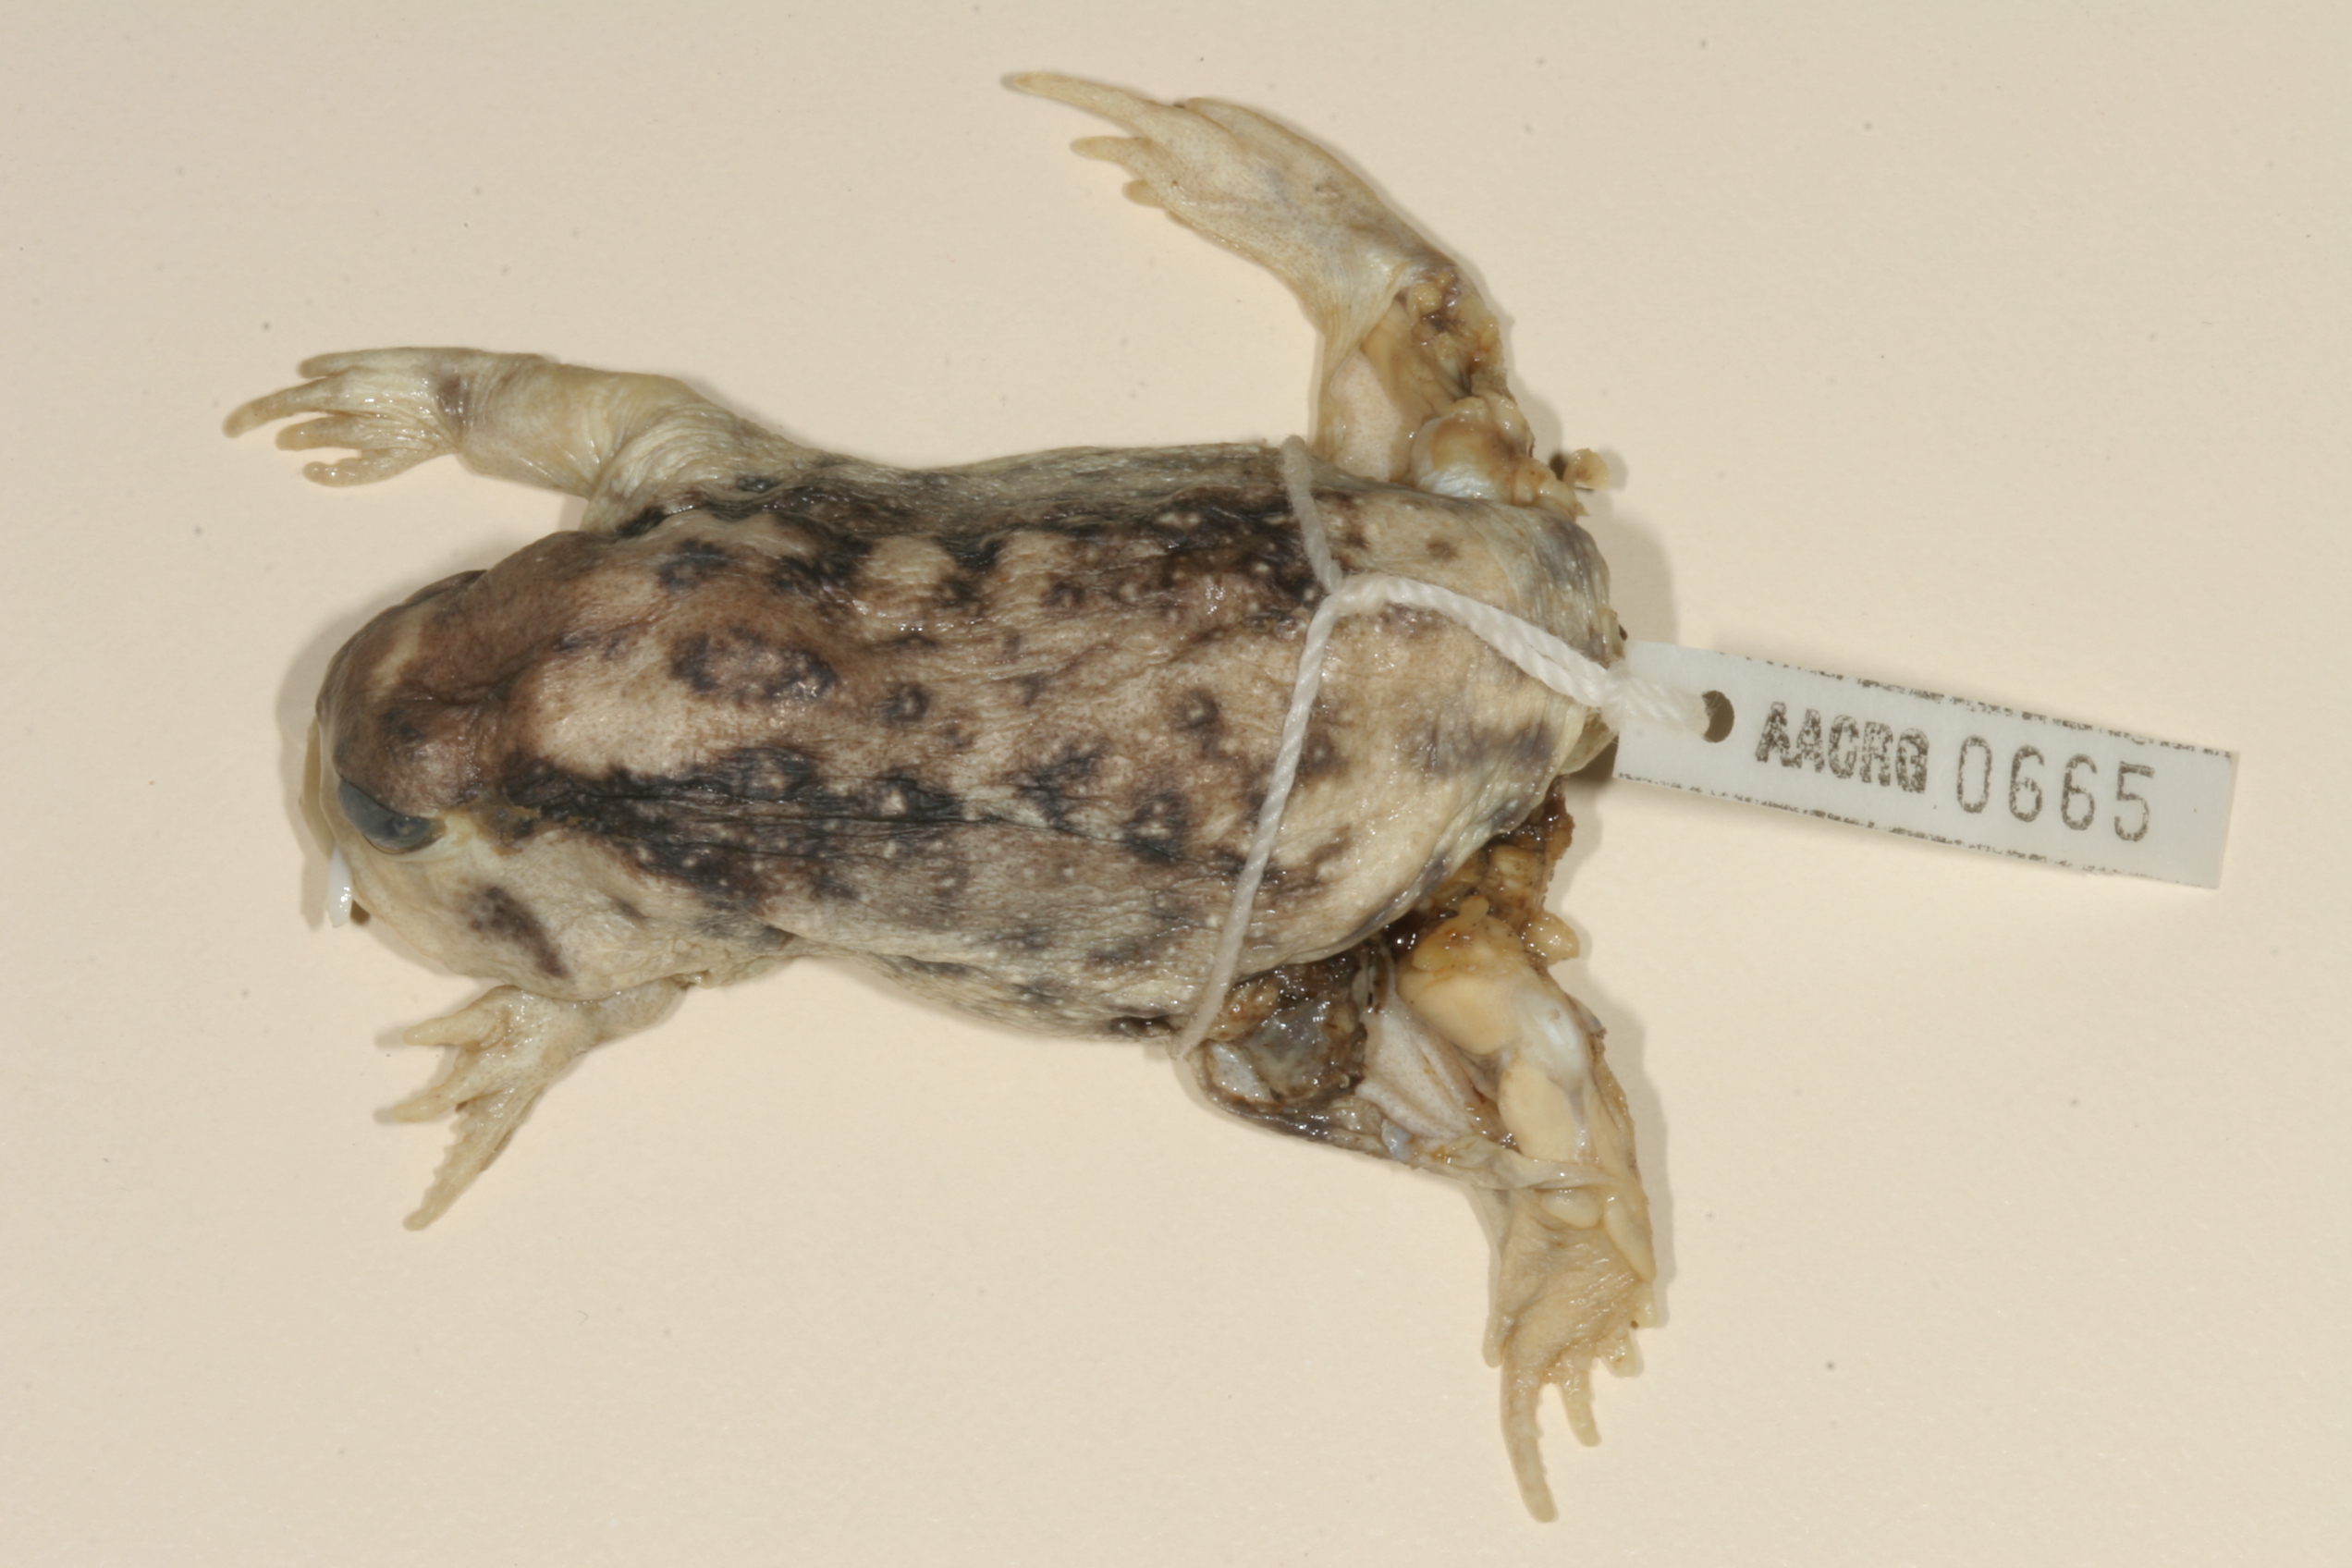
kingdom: Animalia
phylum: Chordata
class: Amphibia
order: Anura
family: Brevicipitidae
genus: Breviceps
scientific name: Breviceps namaquensis
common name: Namaqua rain frog
